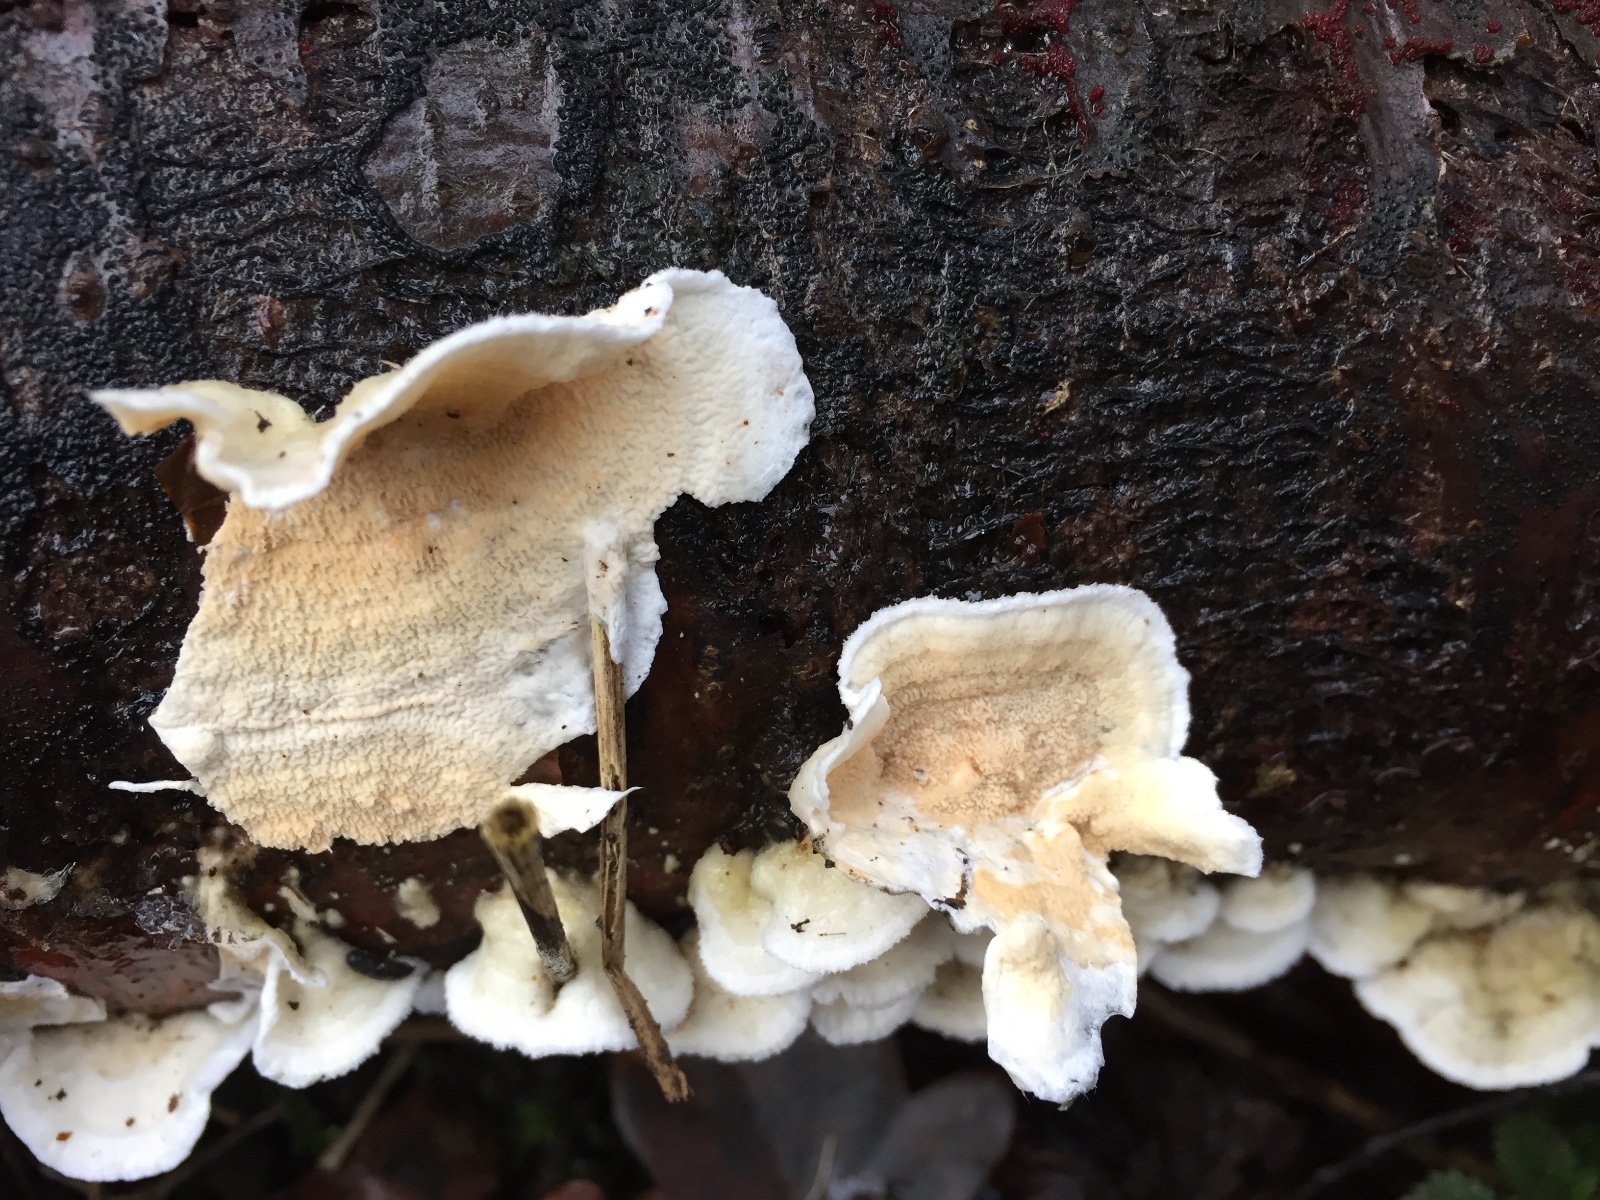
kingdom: Fungi
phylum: Basidiomycota
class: Agaricomycetes
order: Polyporales
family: Irpicaceae
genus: Byssomerulius
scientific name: Byssomerulius corium
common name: læder-åresvamp
